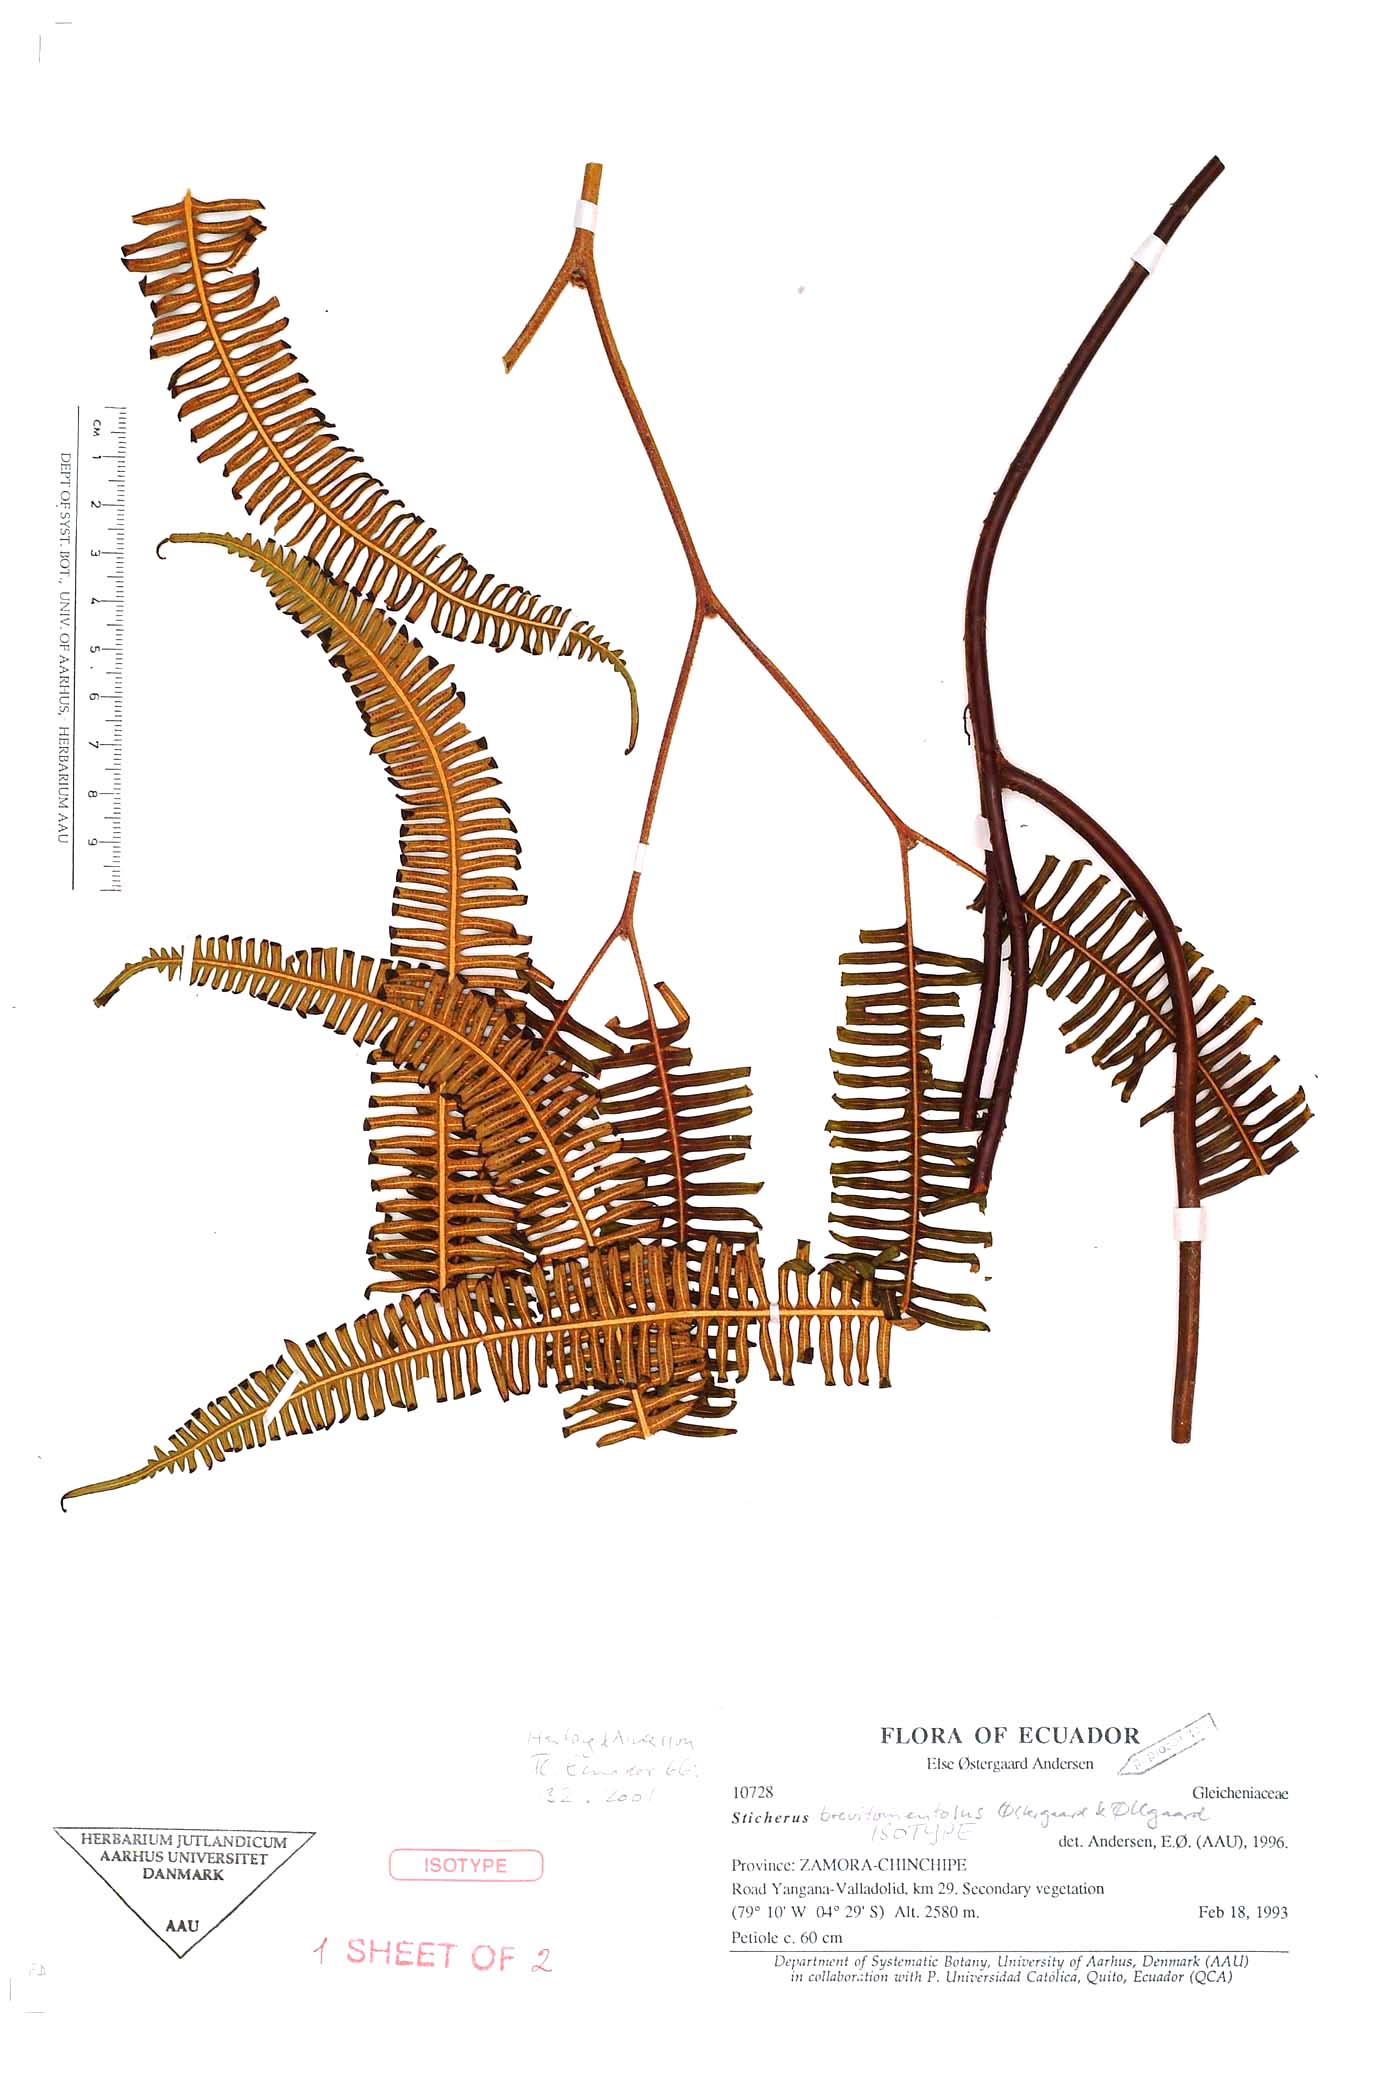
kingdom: Plantae
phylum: Tracheophyta
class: Polypodiopsida
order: Gleicheniales
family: Gleicheniaceae
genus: Sticherus
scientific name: Sticherus brevitomentosus
